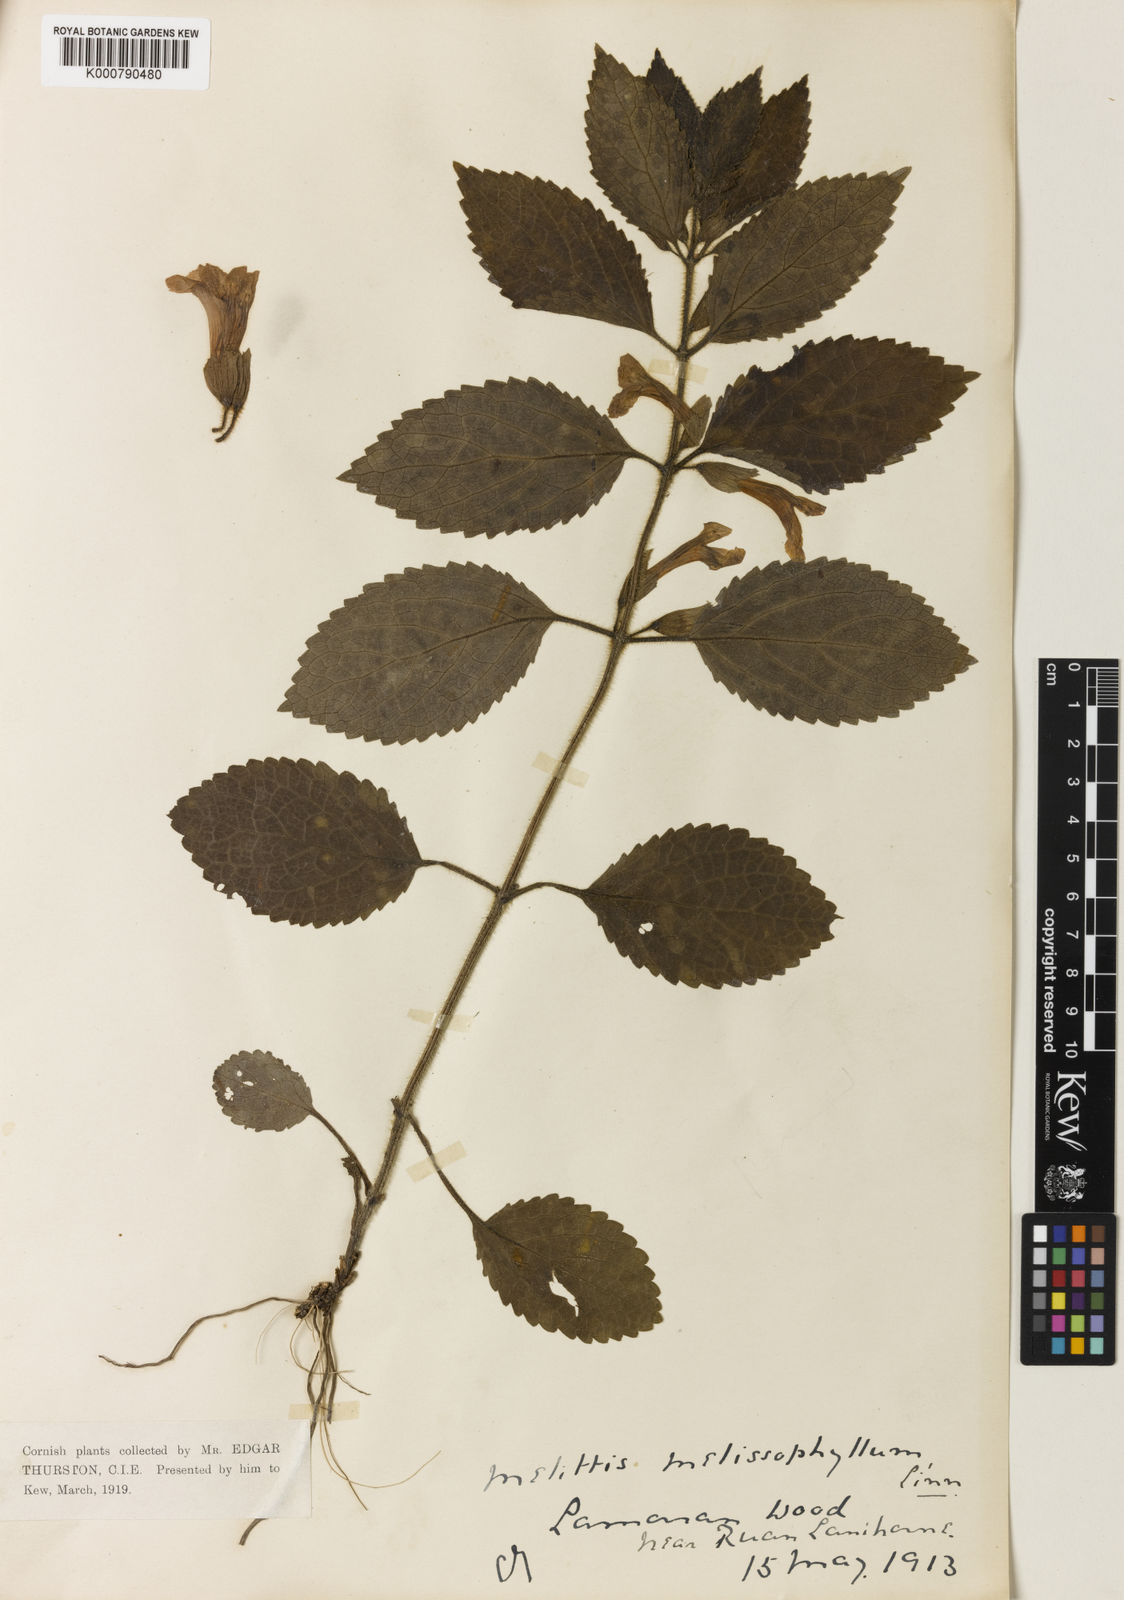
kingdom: Plantae
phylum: Tracheophyta
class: Magnoliopsida
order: Lamiales
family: Lamiaceae
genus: Melittis
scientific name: Melittis melissophyllum
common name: Bastard balm
